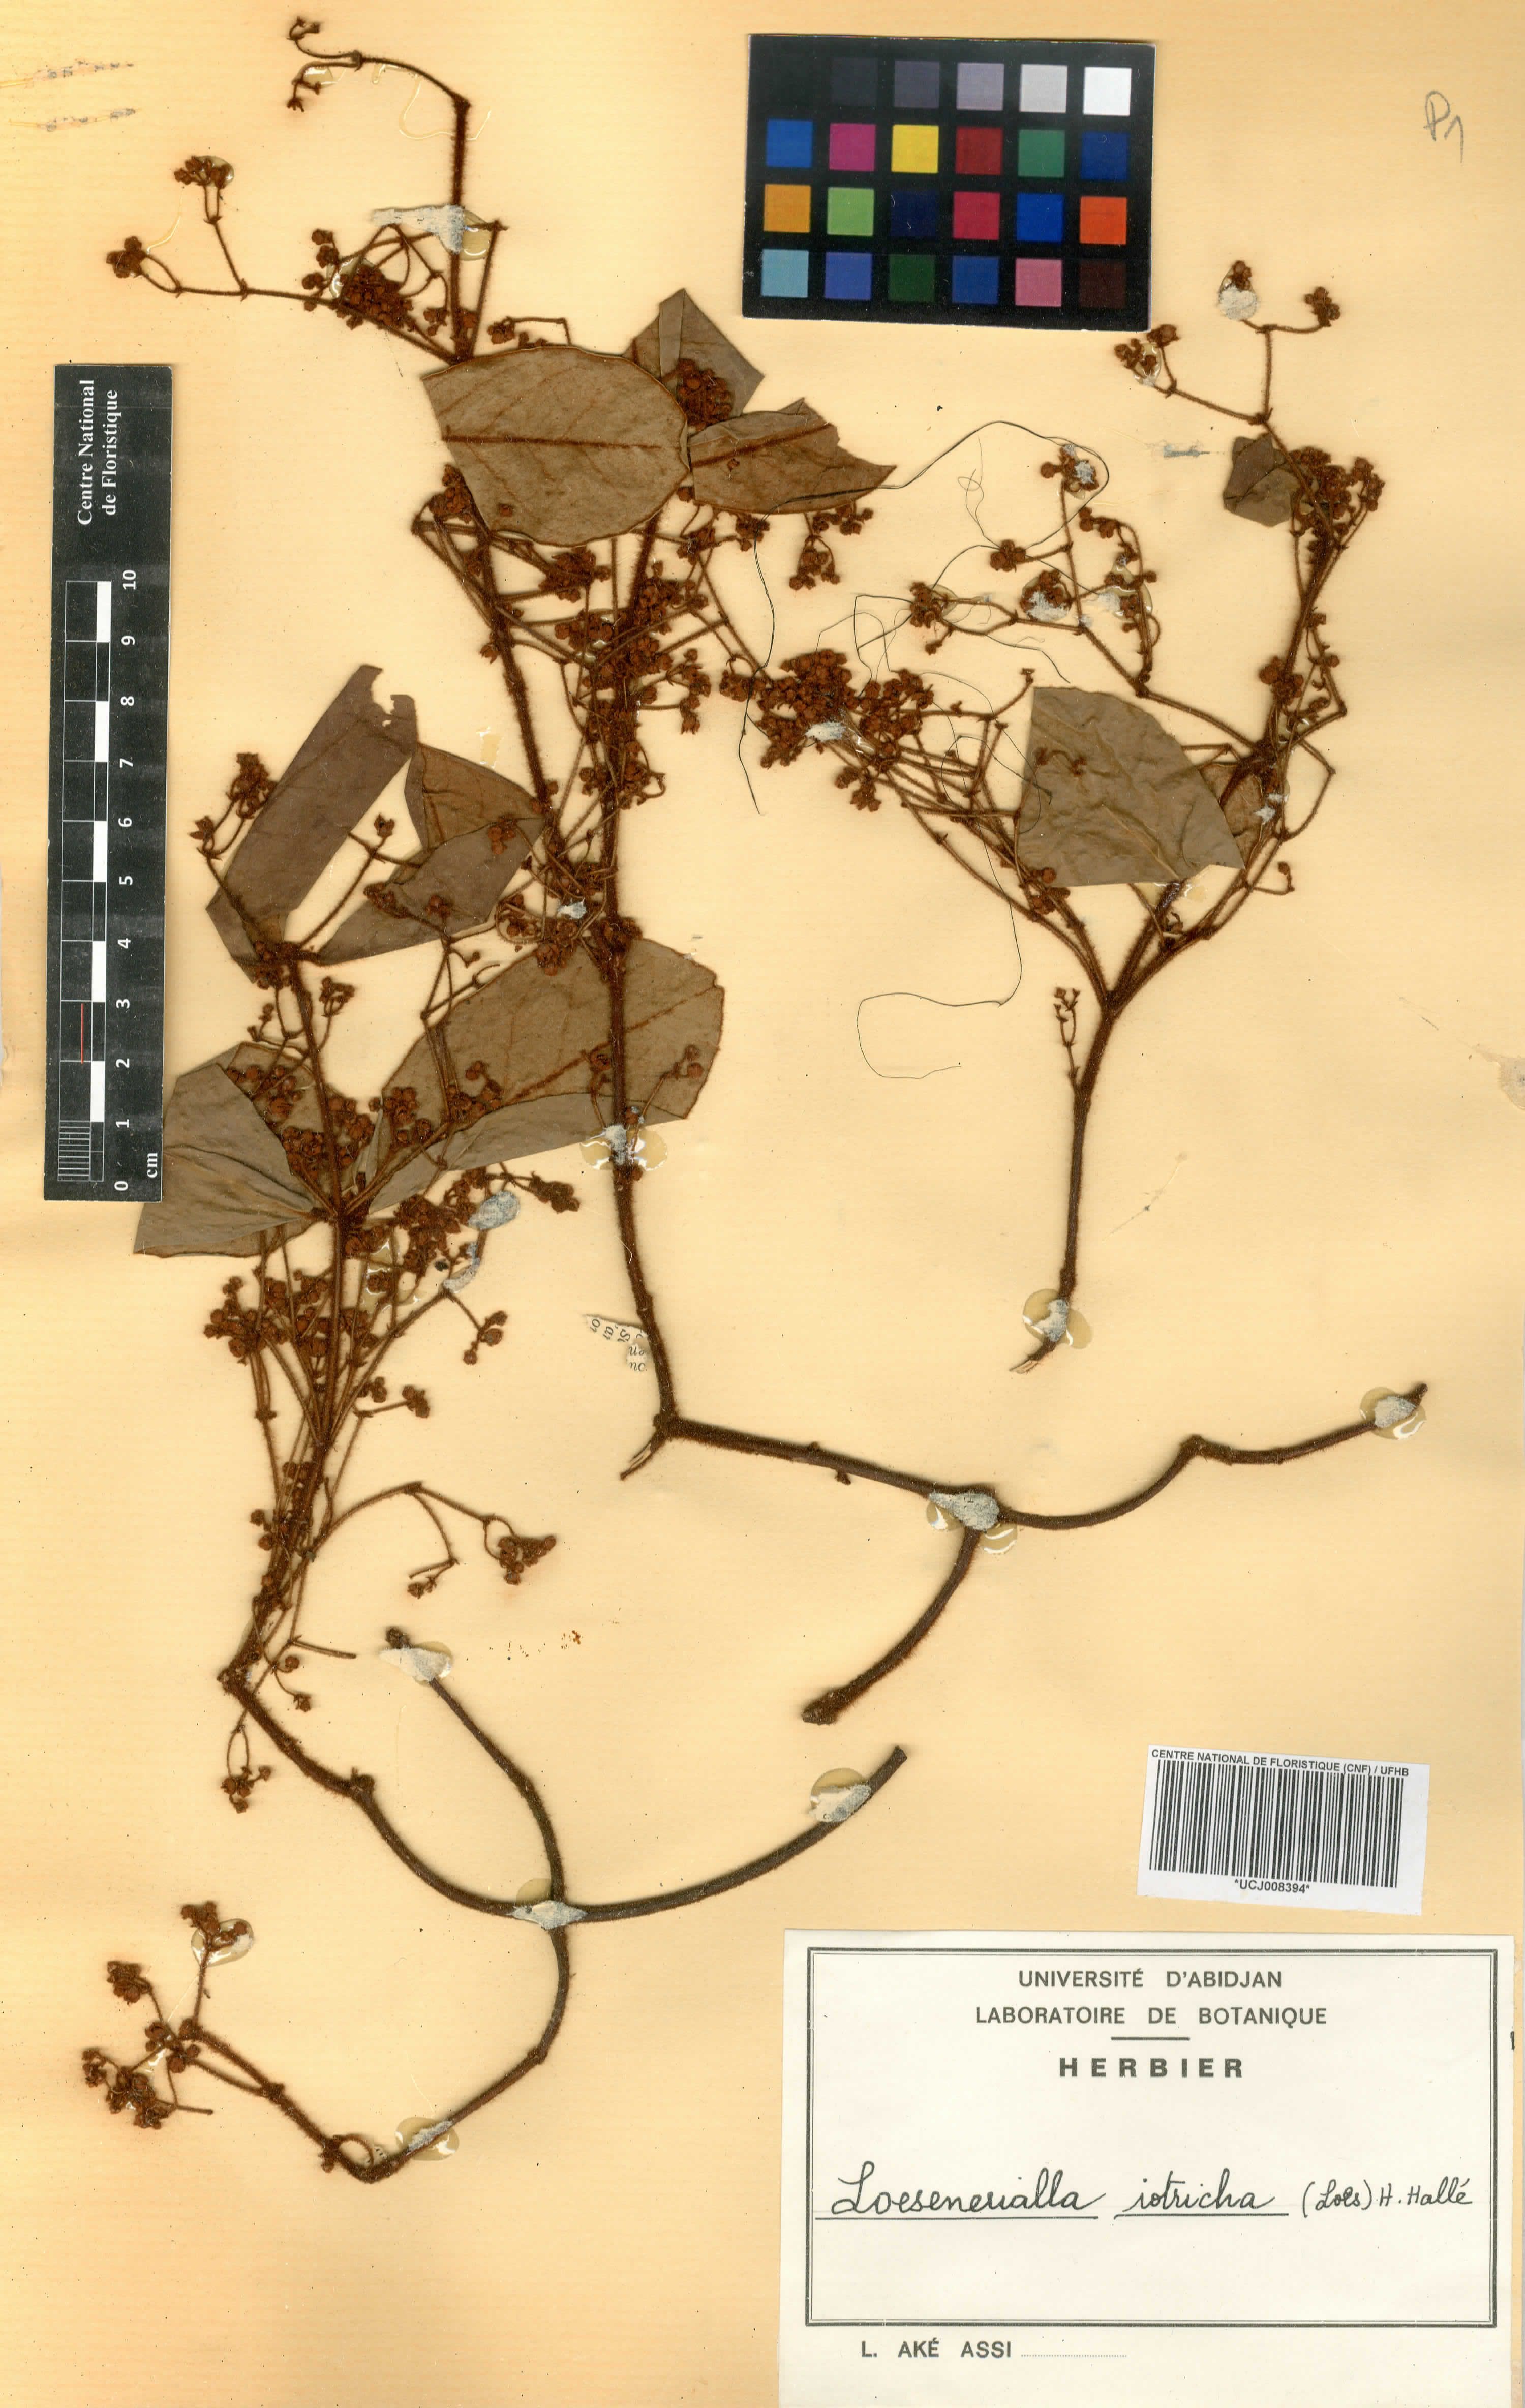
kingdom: Plantae
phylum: Tracheophyta
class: Magnoliopsida
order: Celastrales
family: Celastraceae
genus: Loeseneriella
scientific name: Loeseneriella iotricha
